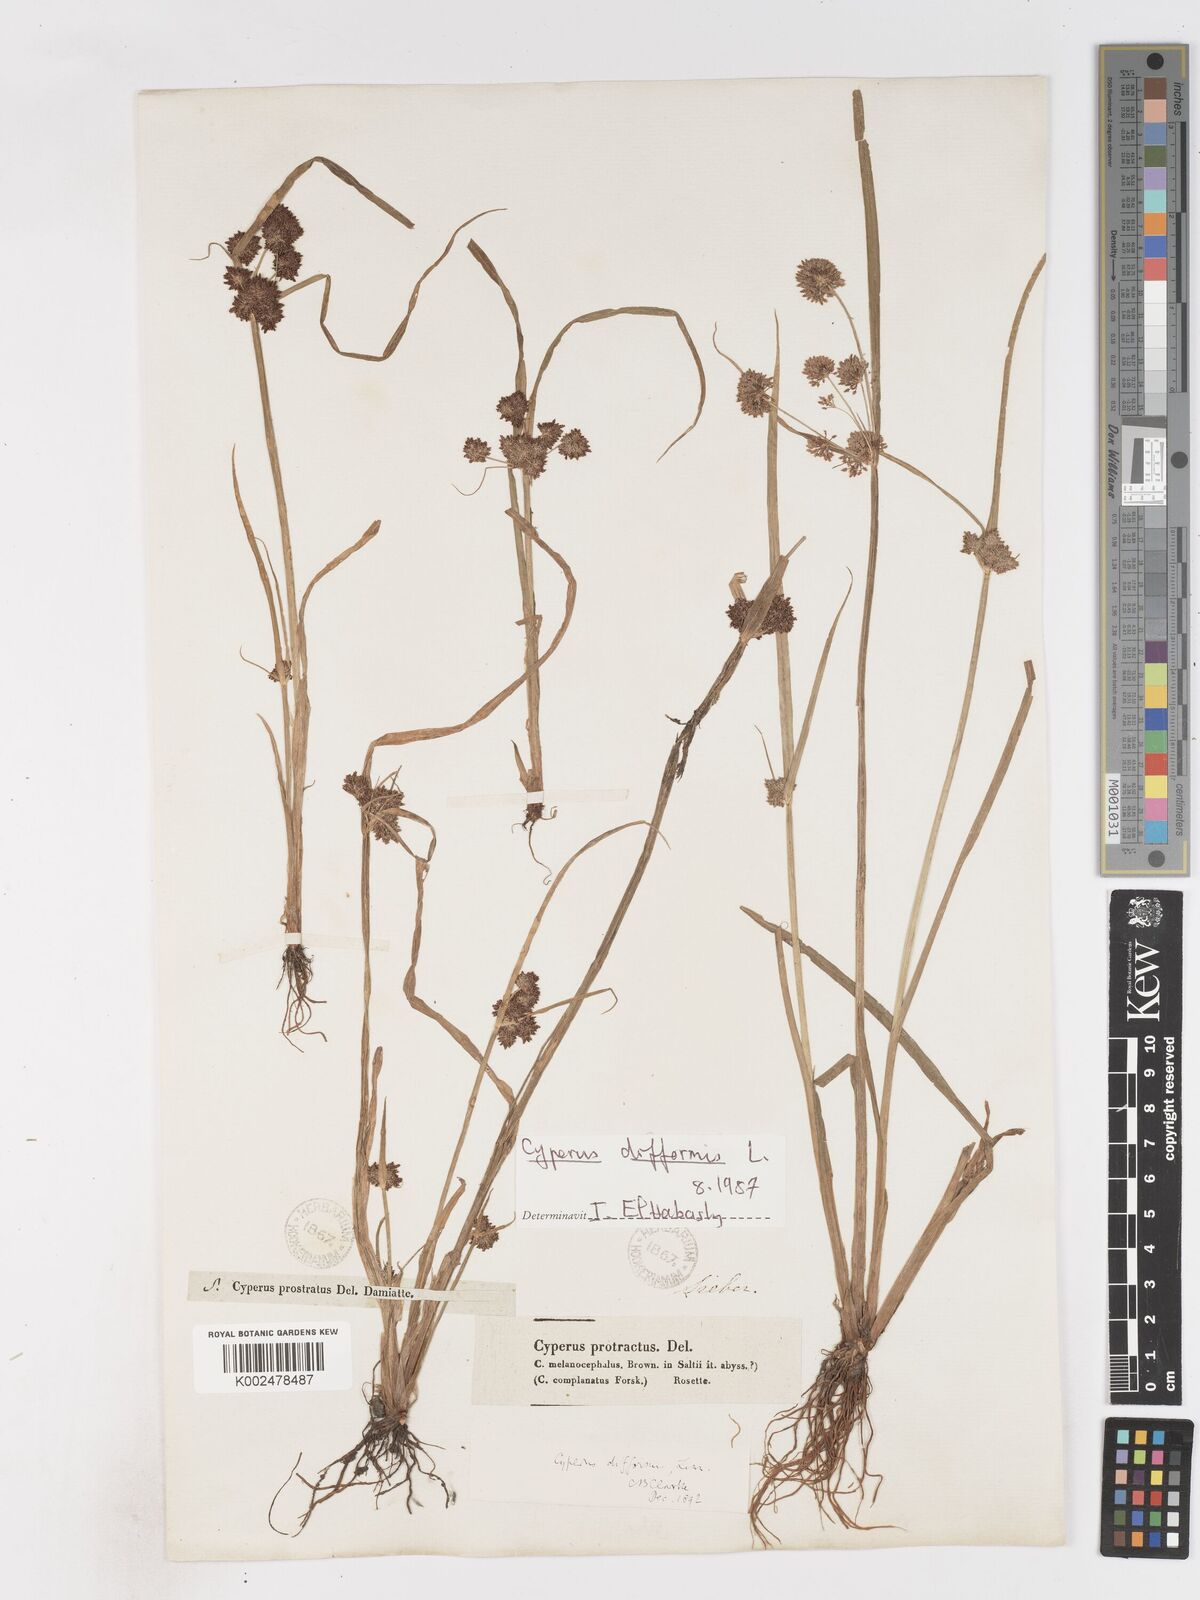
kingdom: Plantae
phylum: Tracheophyta
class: Liliopsida
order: Poales
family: Cyperaceae
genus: Cyperus
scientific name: Cyperus difformis
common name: Variable flatsedge
